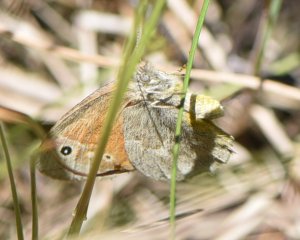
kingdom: Animalia
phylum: Arthropoda
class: Insecta
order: Lepidoptera
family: Nymphalidae
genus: Coenonympha
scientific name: Coenonympha tullia
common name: Large Heath
